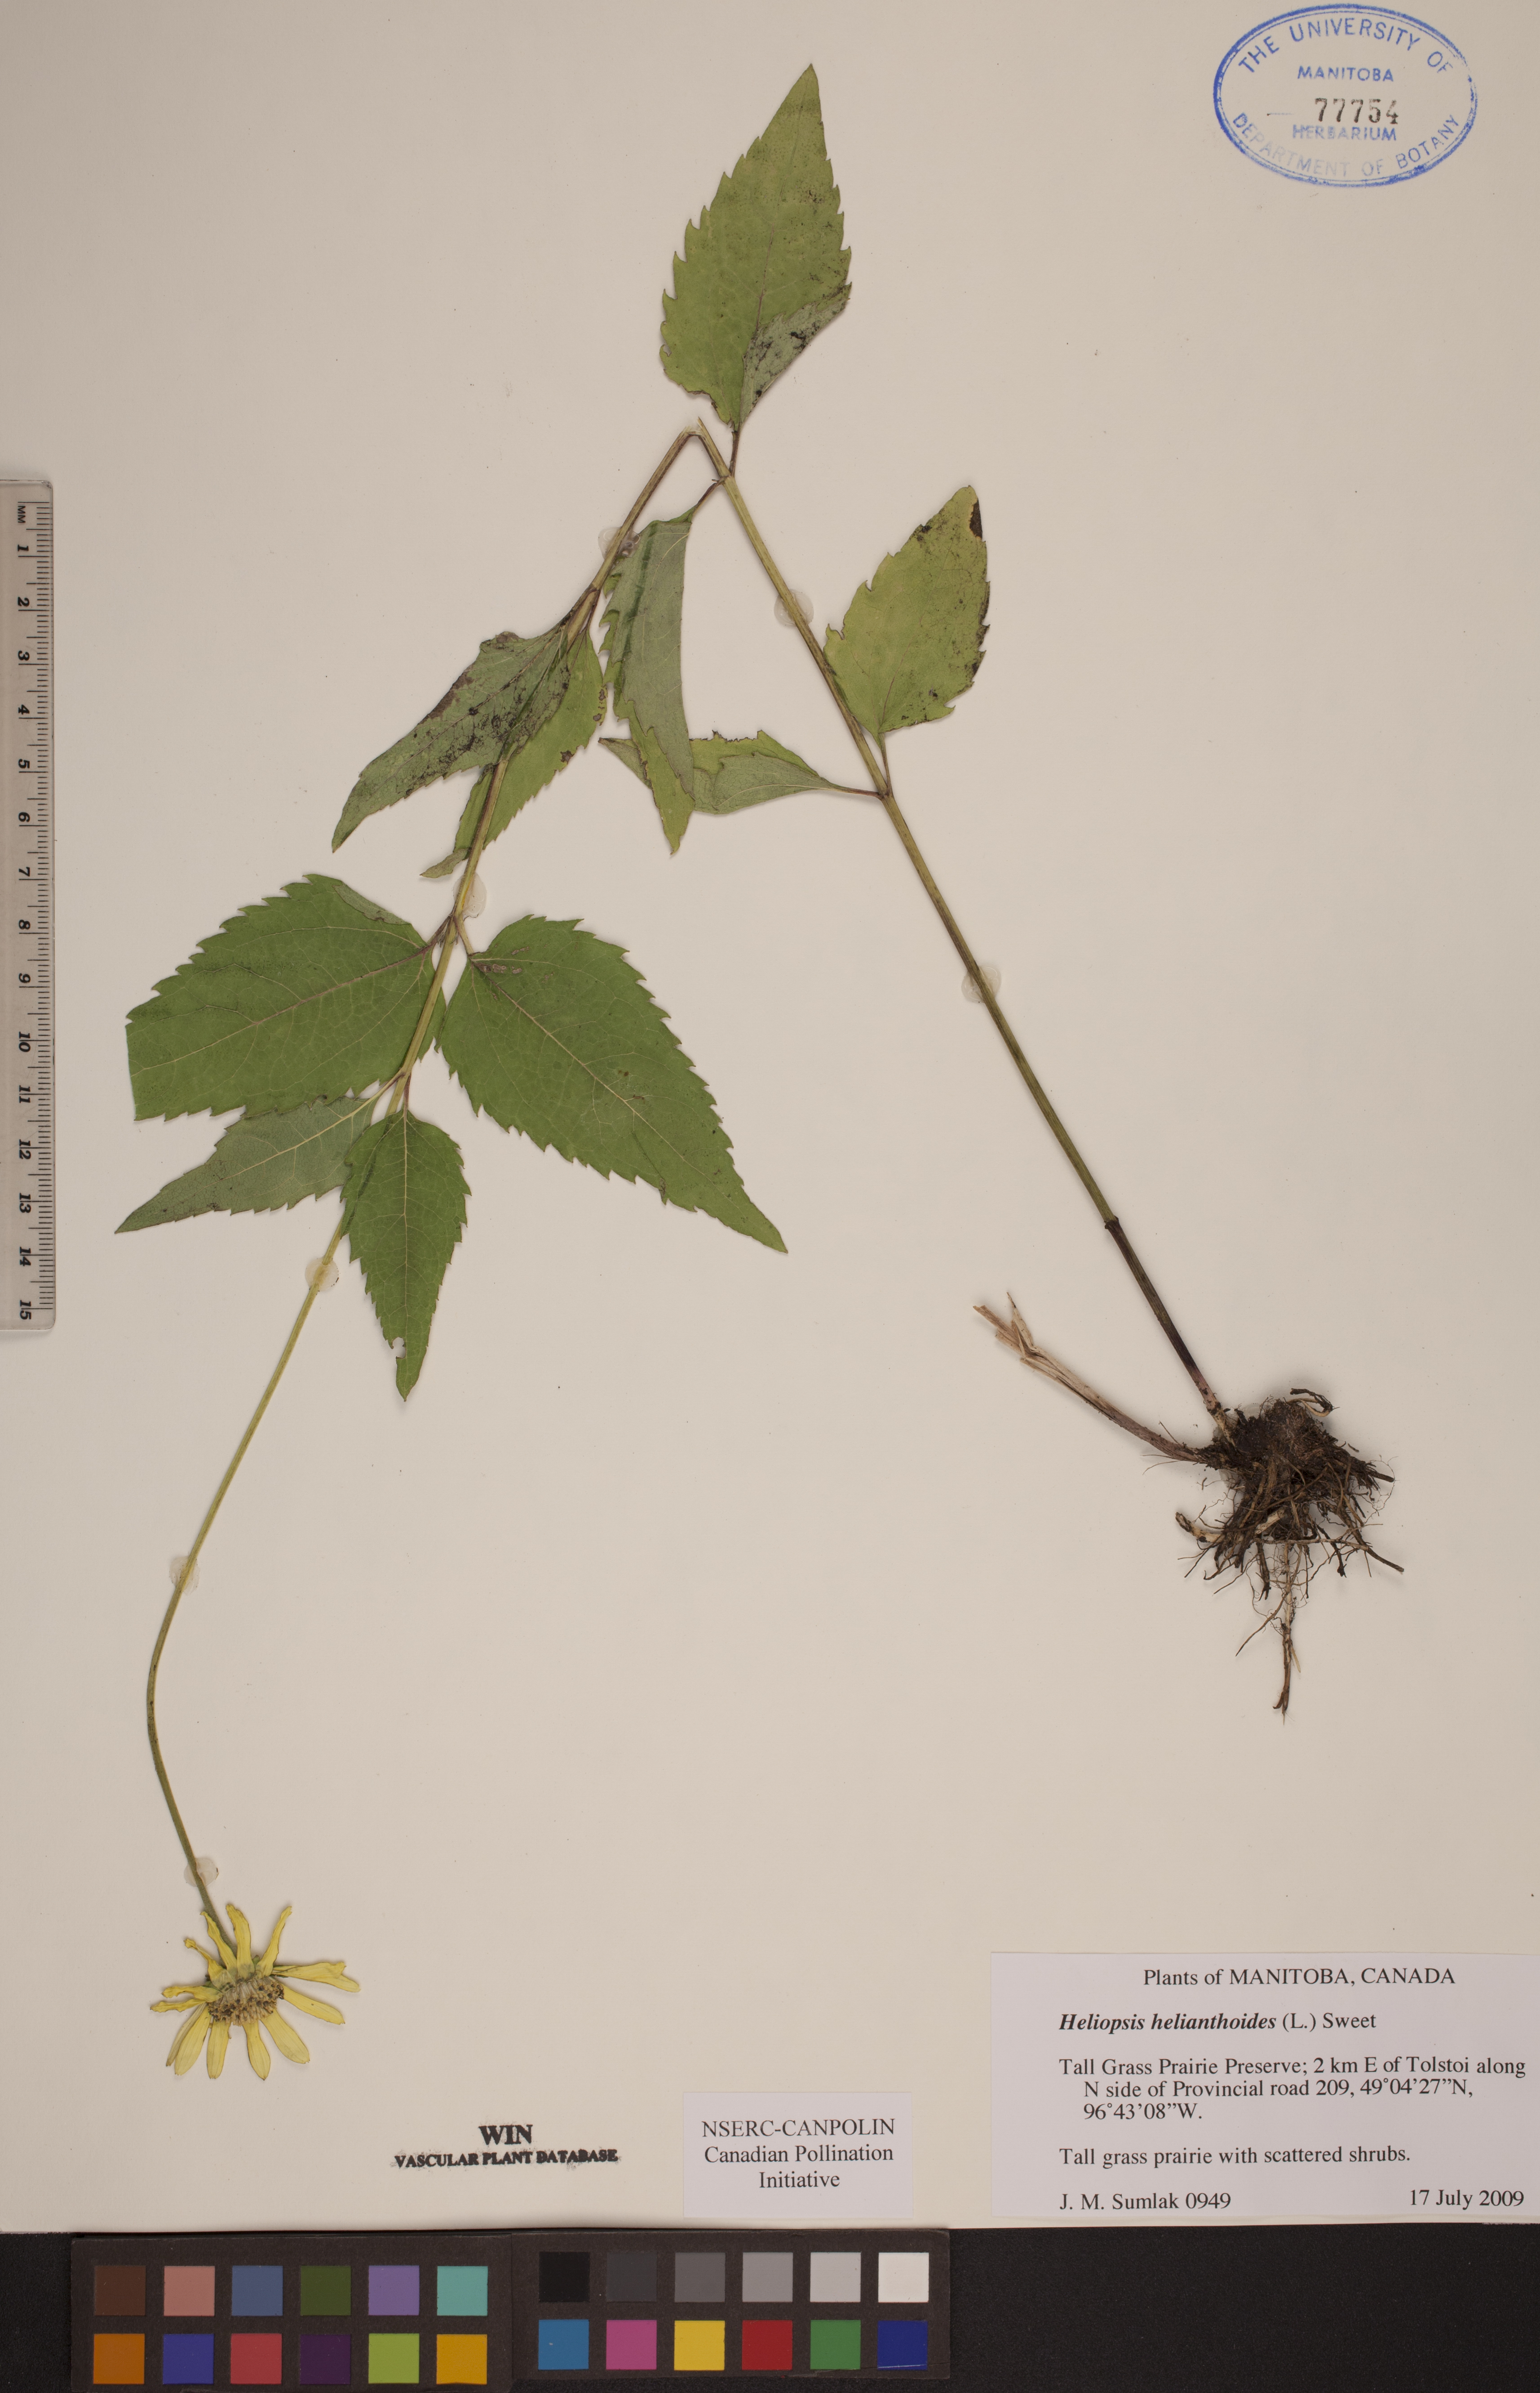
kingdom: Plantae
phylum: Tracheophyta
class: Magnoliopsida
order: Asterales
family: Asteraceae
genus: Heliopsis
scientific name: Heliopsis helianthoides
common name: False sunflower
